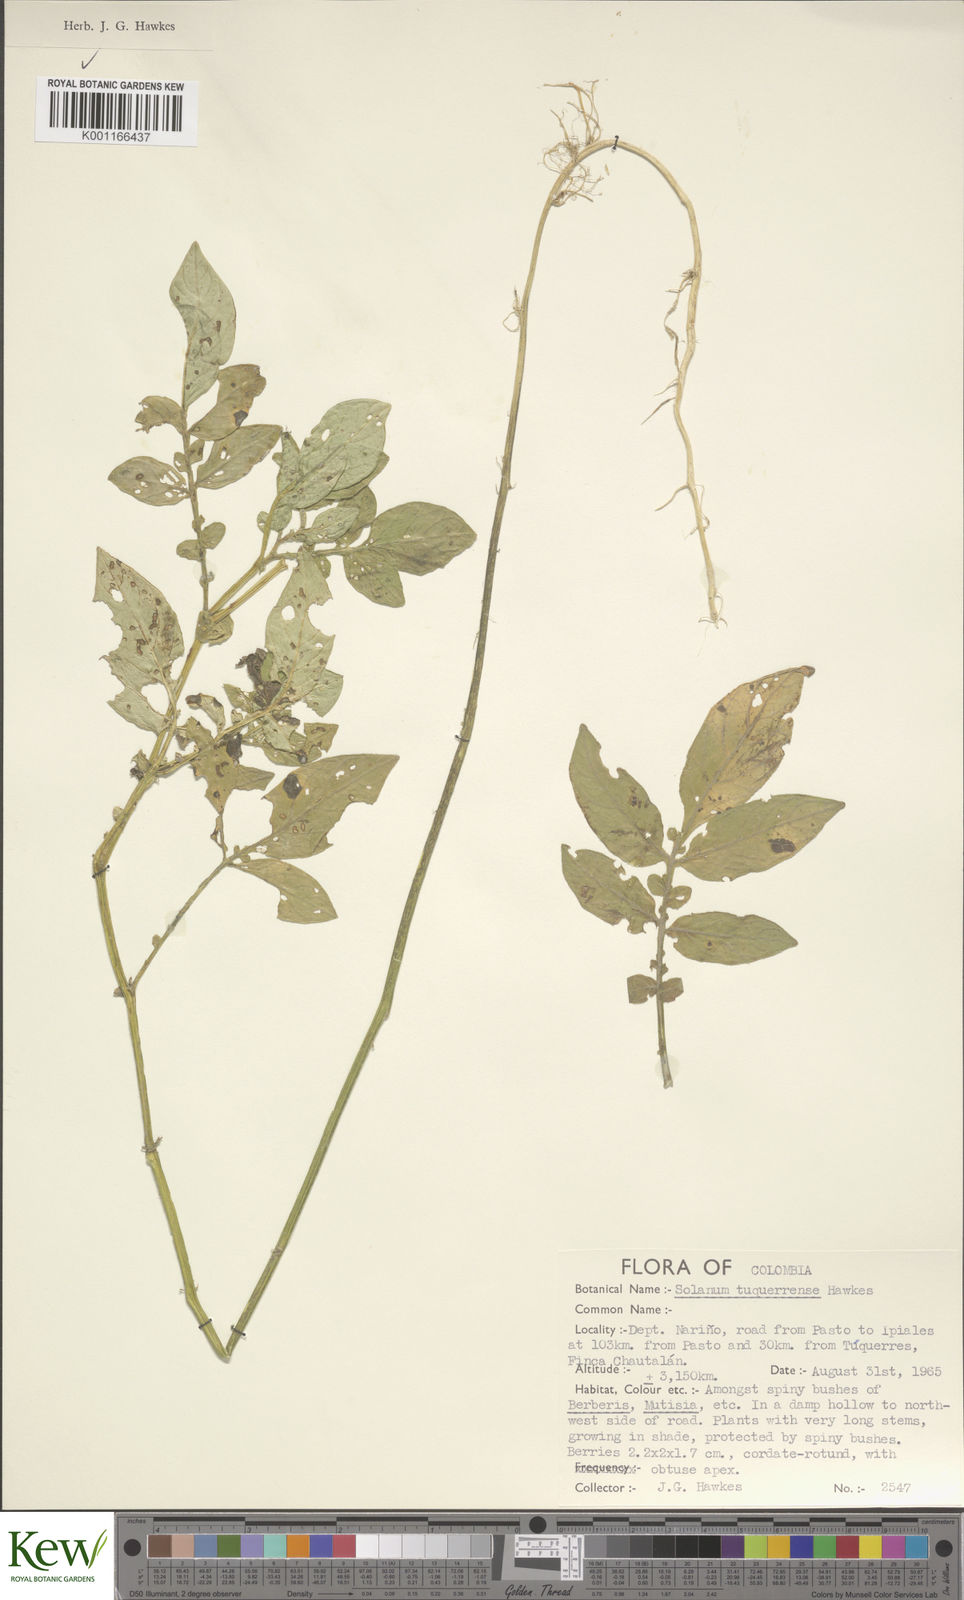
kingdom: Plantae
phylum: Tracheophyta
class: Magnoliopsida
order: Solanales
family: Solanaceae
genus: Solanum
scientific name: Solanum andreanum
